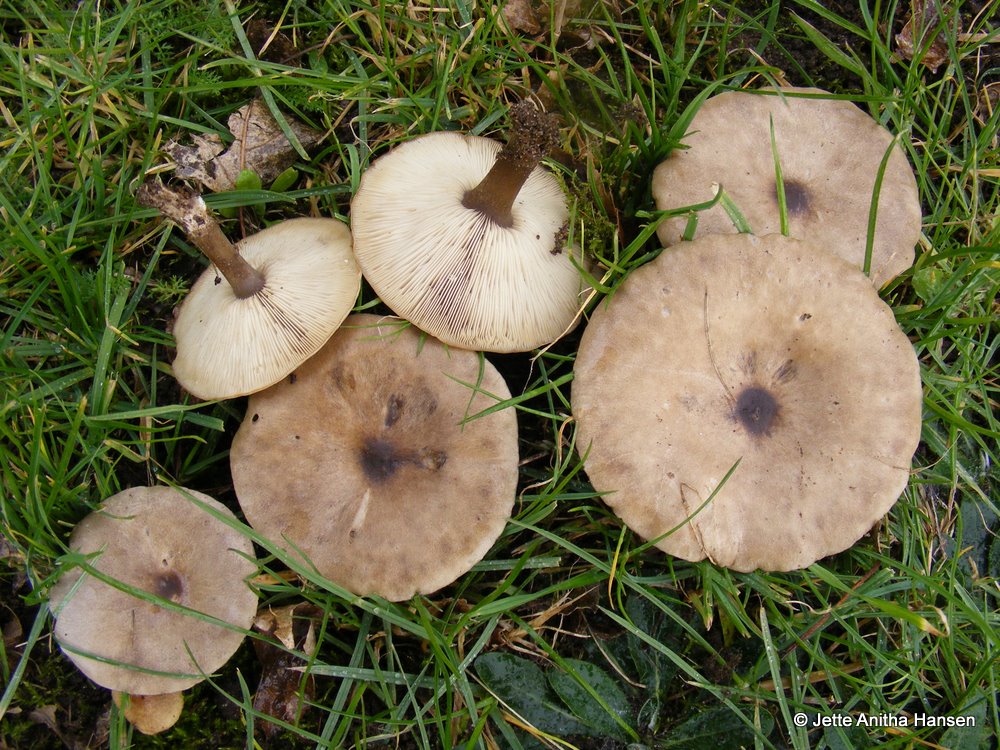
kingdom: Fungi
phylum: Basidiomycota
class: Agaricomycetes
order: Agaricales
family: Tricholomataceae
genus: Melanoleuca
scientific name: Melanoleuca
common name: munkehat
